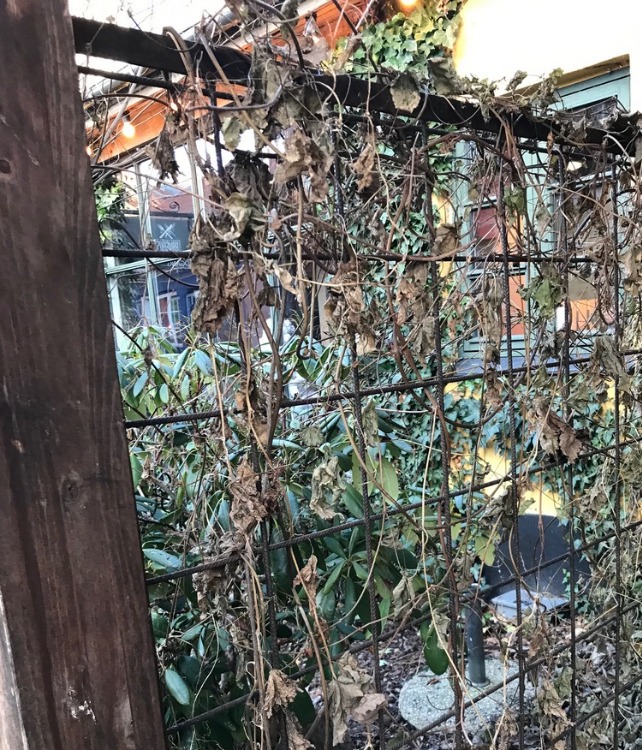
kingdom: Plantae
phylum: Tracheophyta
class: Magnoliopsida
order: Cucurbitales
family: Cucurbitaceae
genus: Bryonia
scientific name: Bryonia alba
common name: Enbo galdebær
